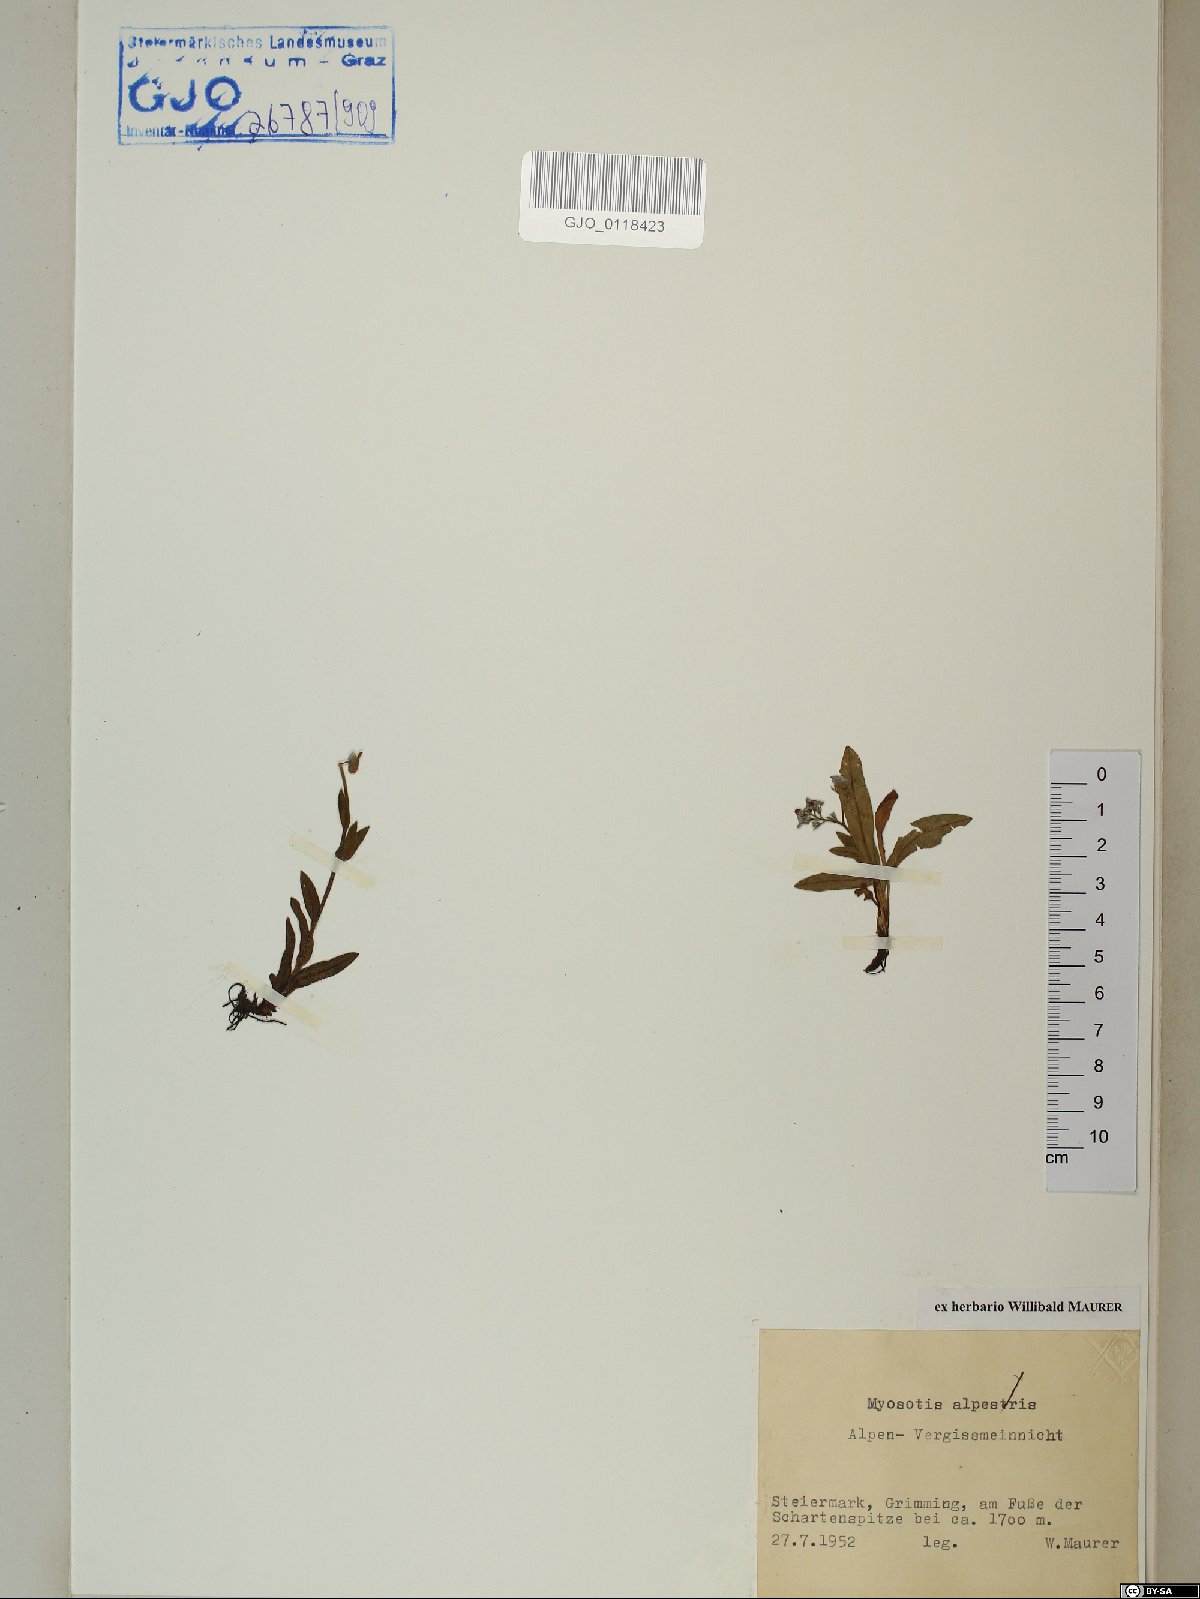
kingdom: Plantae
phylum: Tracheophyta
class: Magnoliopsida
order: Boraginales
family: Boraginaceae
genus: Myosotis
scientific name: Myosotis alpestris
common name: Alpine forget-me-not
